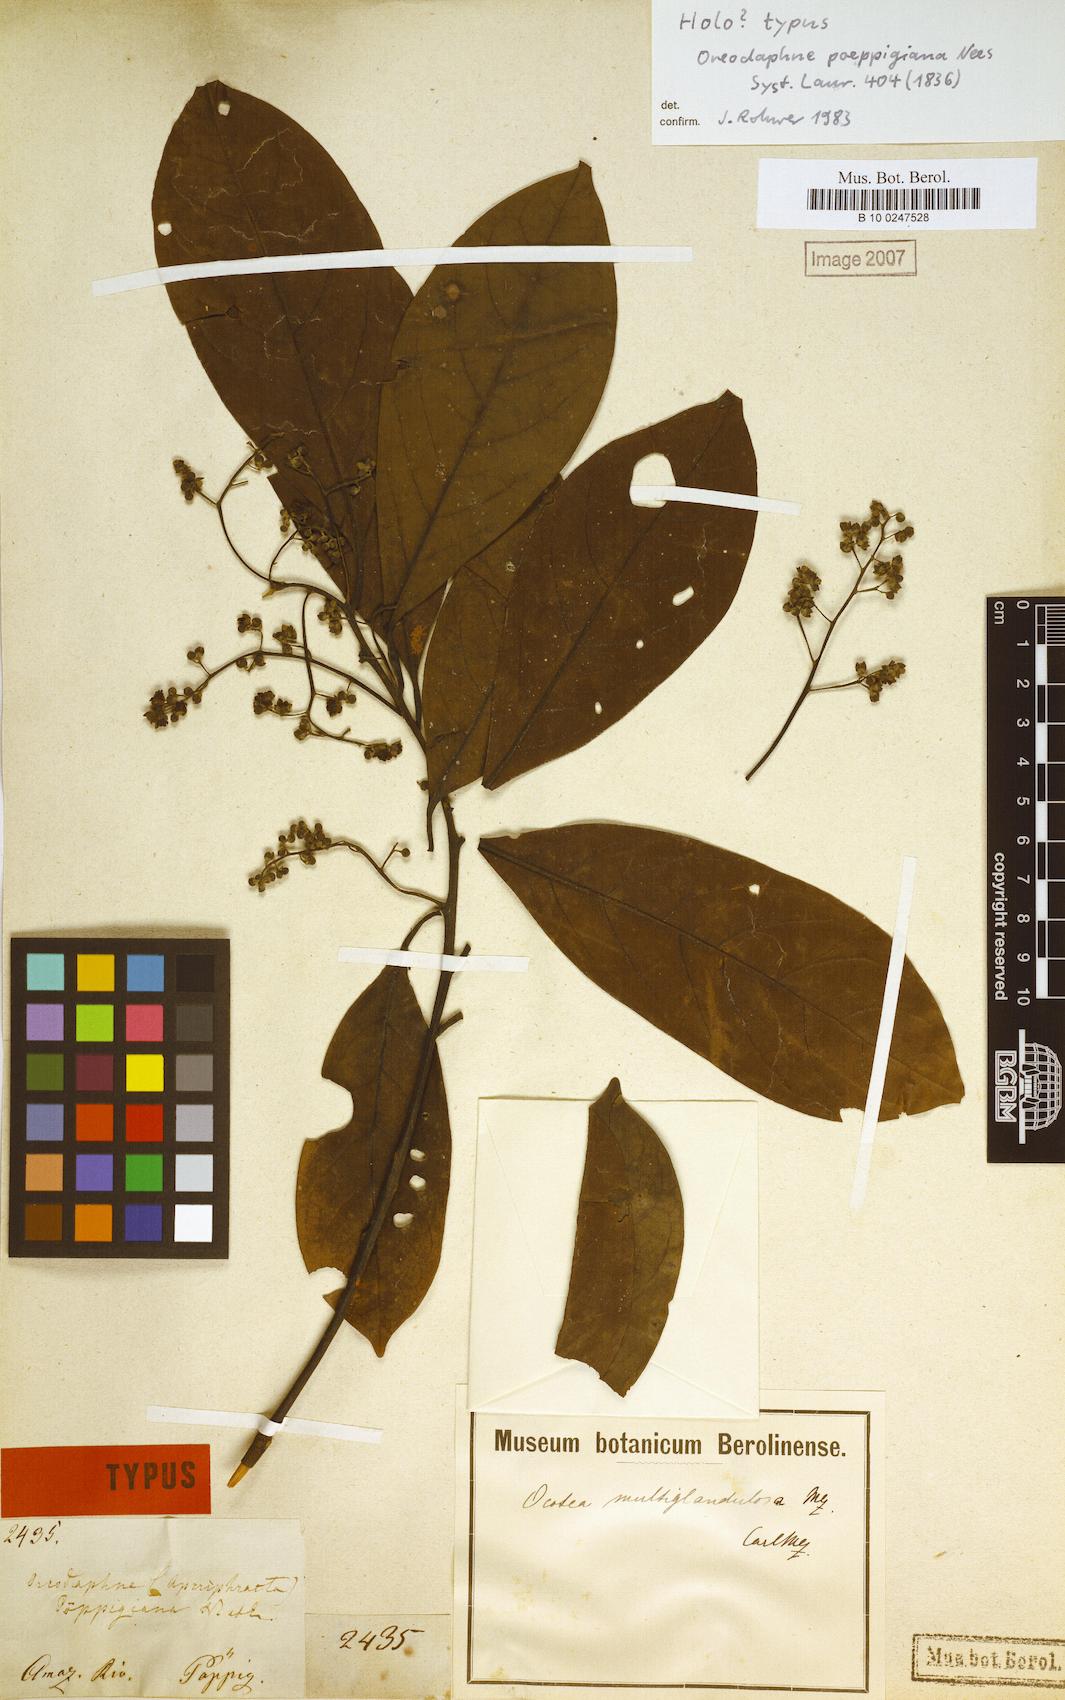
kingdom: Plantae
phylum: Tracheophyta
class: Magnoliopsida
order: Laurales
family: Lauraceae
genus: Ocotea
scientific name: Ocotea floribunda
